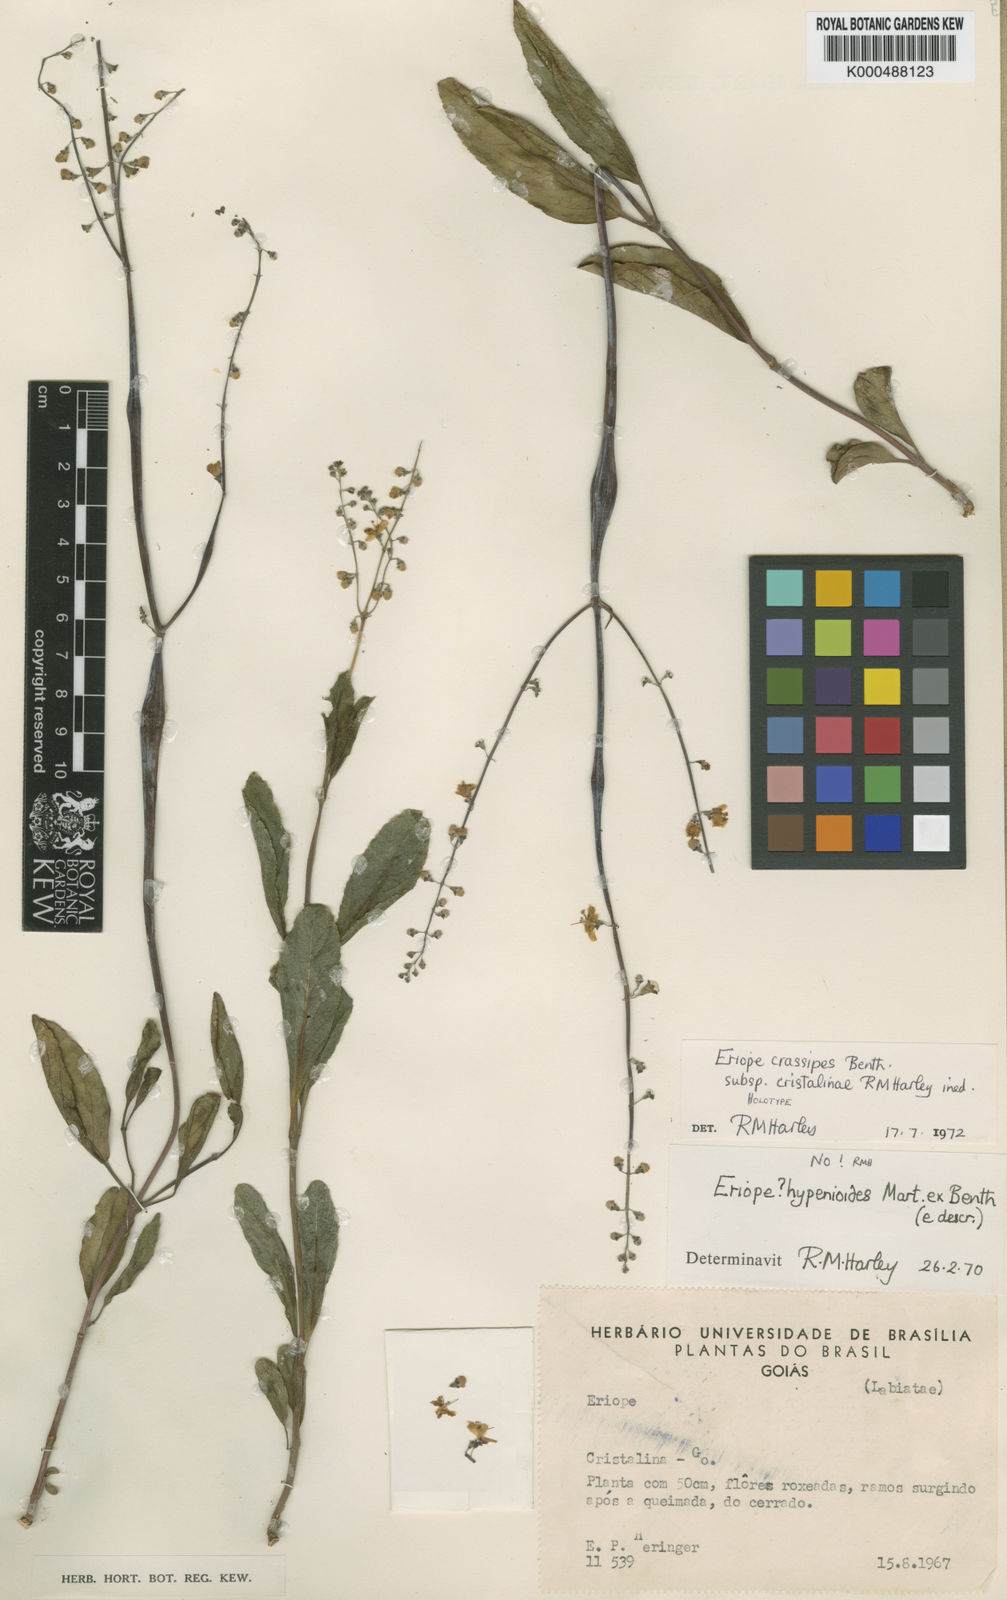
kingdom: Plantae
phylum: Tracheophyta
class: Magnoliopsida
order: Lamiales
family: Lamiaceae
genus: Eriope
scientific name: Eriope crassipes
